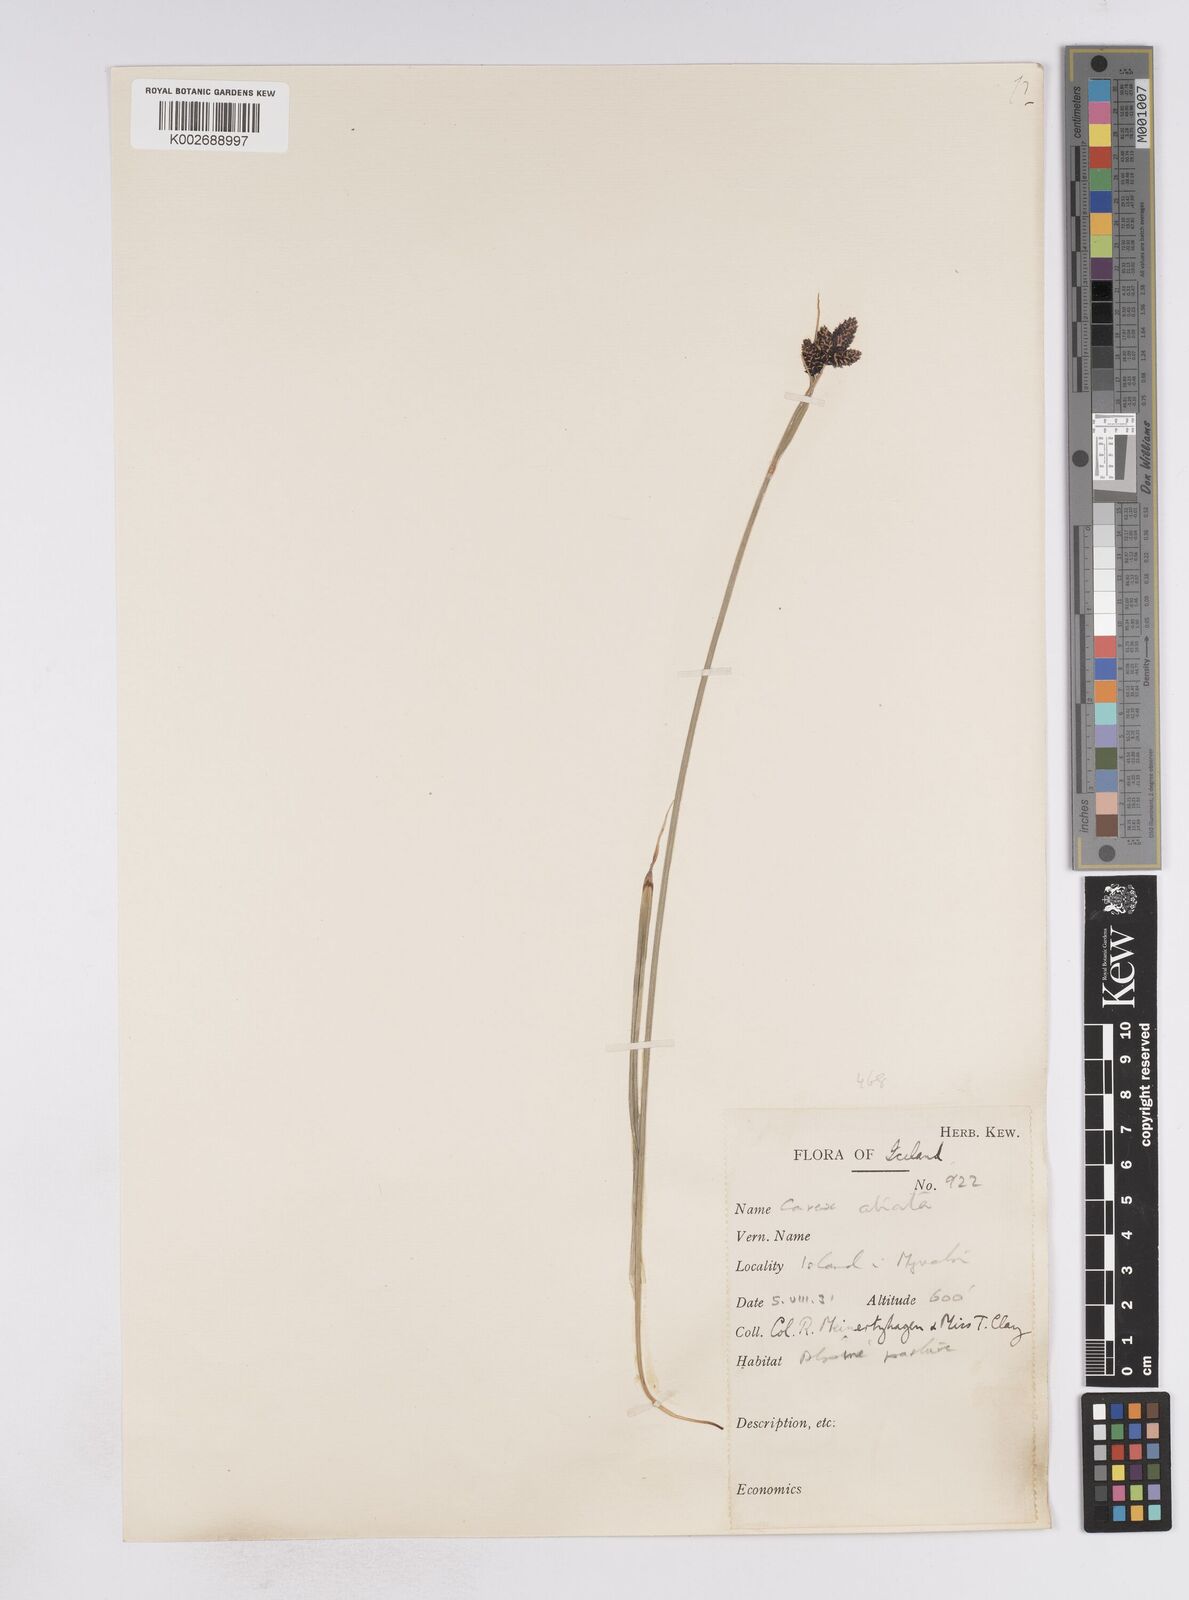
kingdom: Plantae
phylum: Tracheophyta
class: Liliopsida
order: Poales
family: Cyperaceae
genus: Carex
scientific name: Carex atrata
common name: Black alpine sedge
